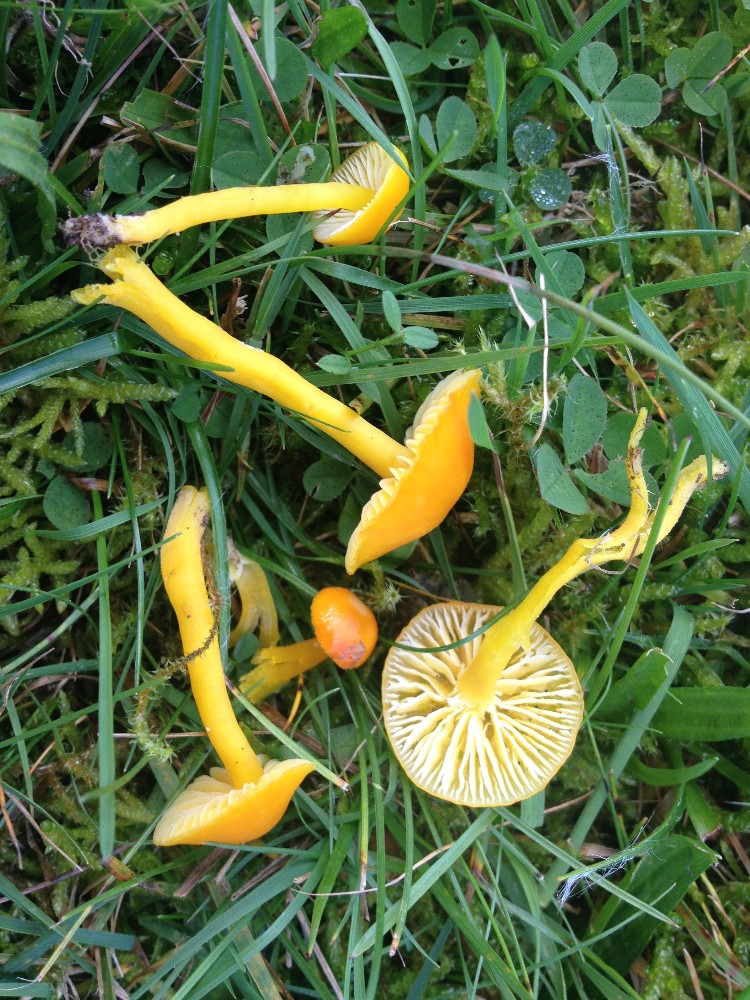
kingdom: Fungi
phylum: Basidiomycota
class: Agaricomycetes
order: Agaricales
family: Hygrophoraceae
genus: Hygrocybe
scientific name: Hygrocybe ceracea
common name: voksgul vokshat
